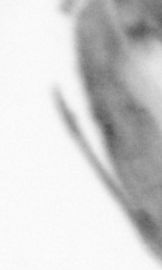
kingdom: Animalia
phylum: Arthropoda
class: Copepoda
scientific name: Copepoda
